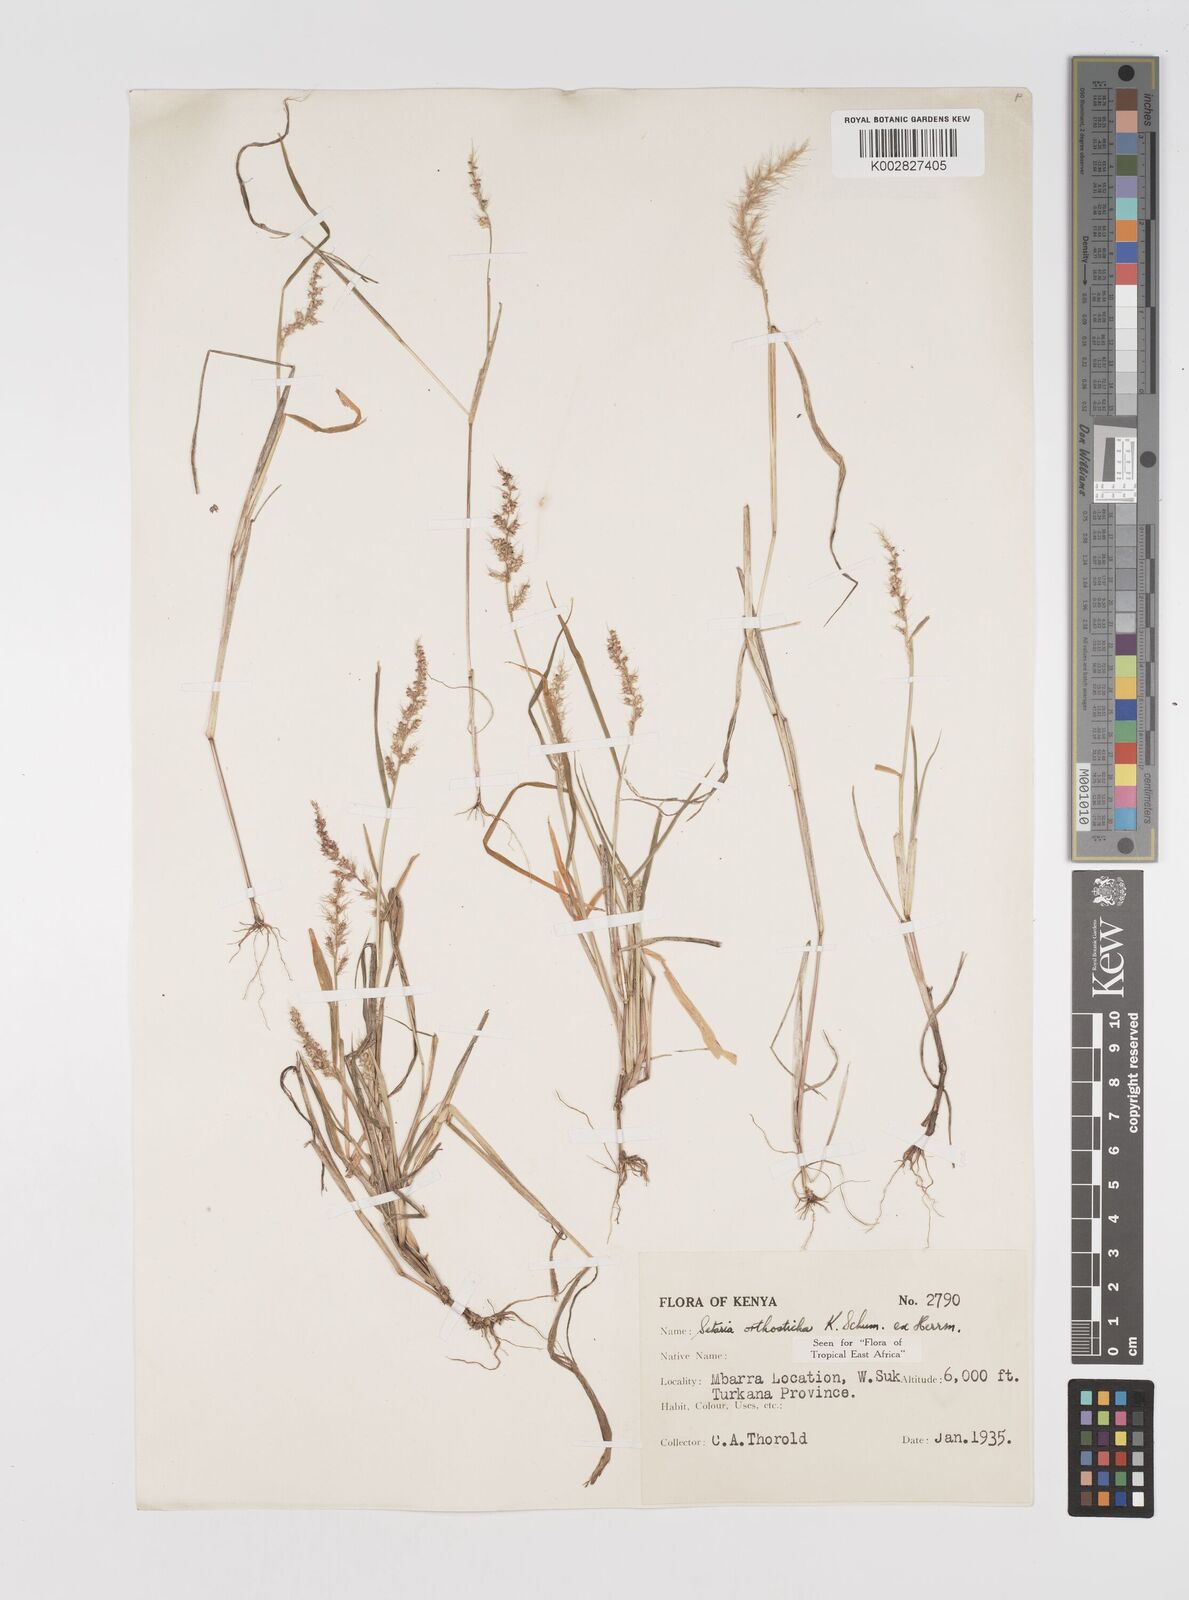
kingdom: Plantae
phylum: Tracheophyta
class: Liliopsida
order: Poales
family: Poaceae
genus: Setaria
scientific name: Setaria orthosticha
